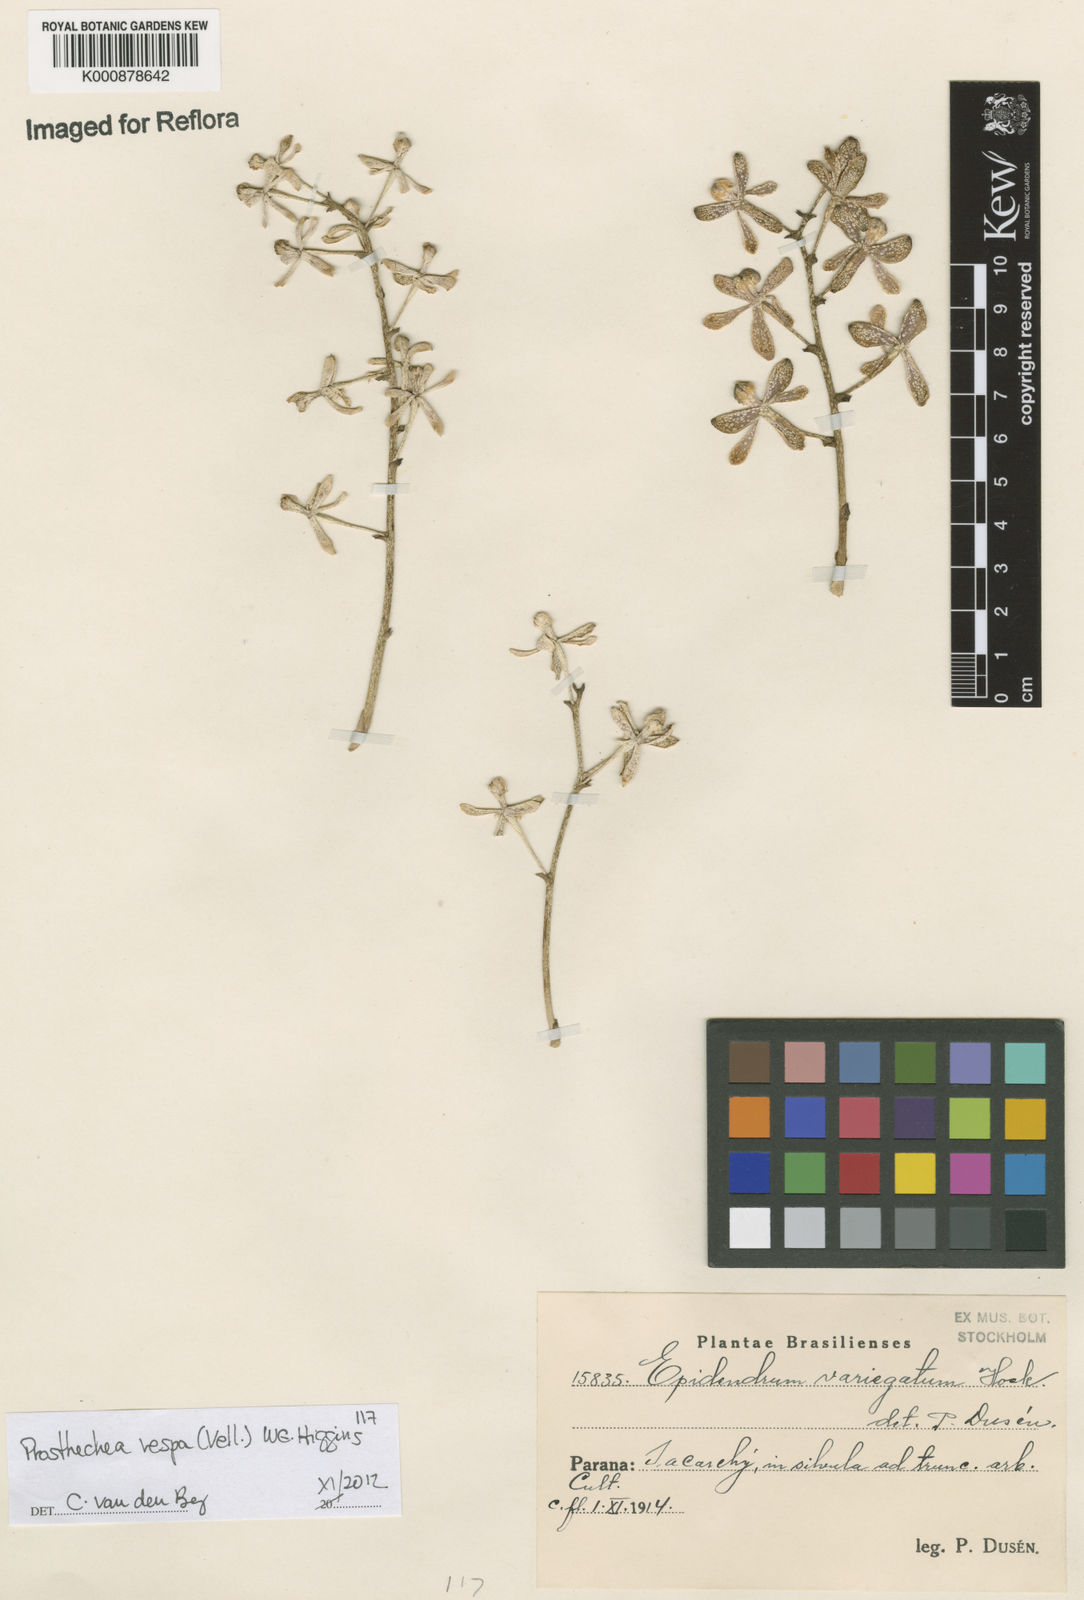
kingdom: Plantae
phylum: Tracheophyta
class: Liliopsida
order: Asparagales
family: Orchidaceae
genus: Prosthechea
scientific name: Prosthechea vespa
